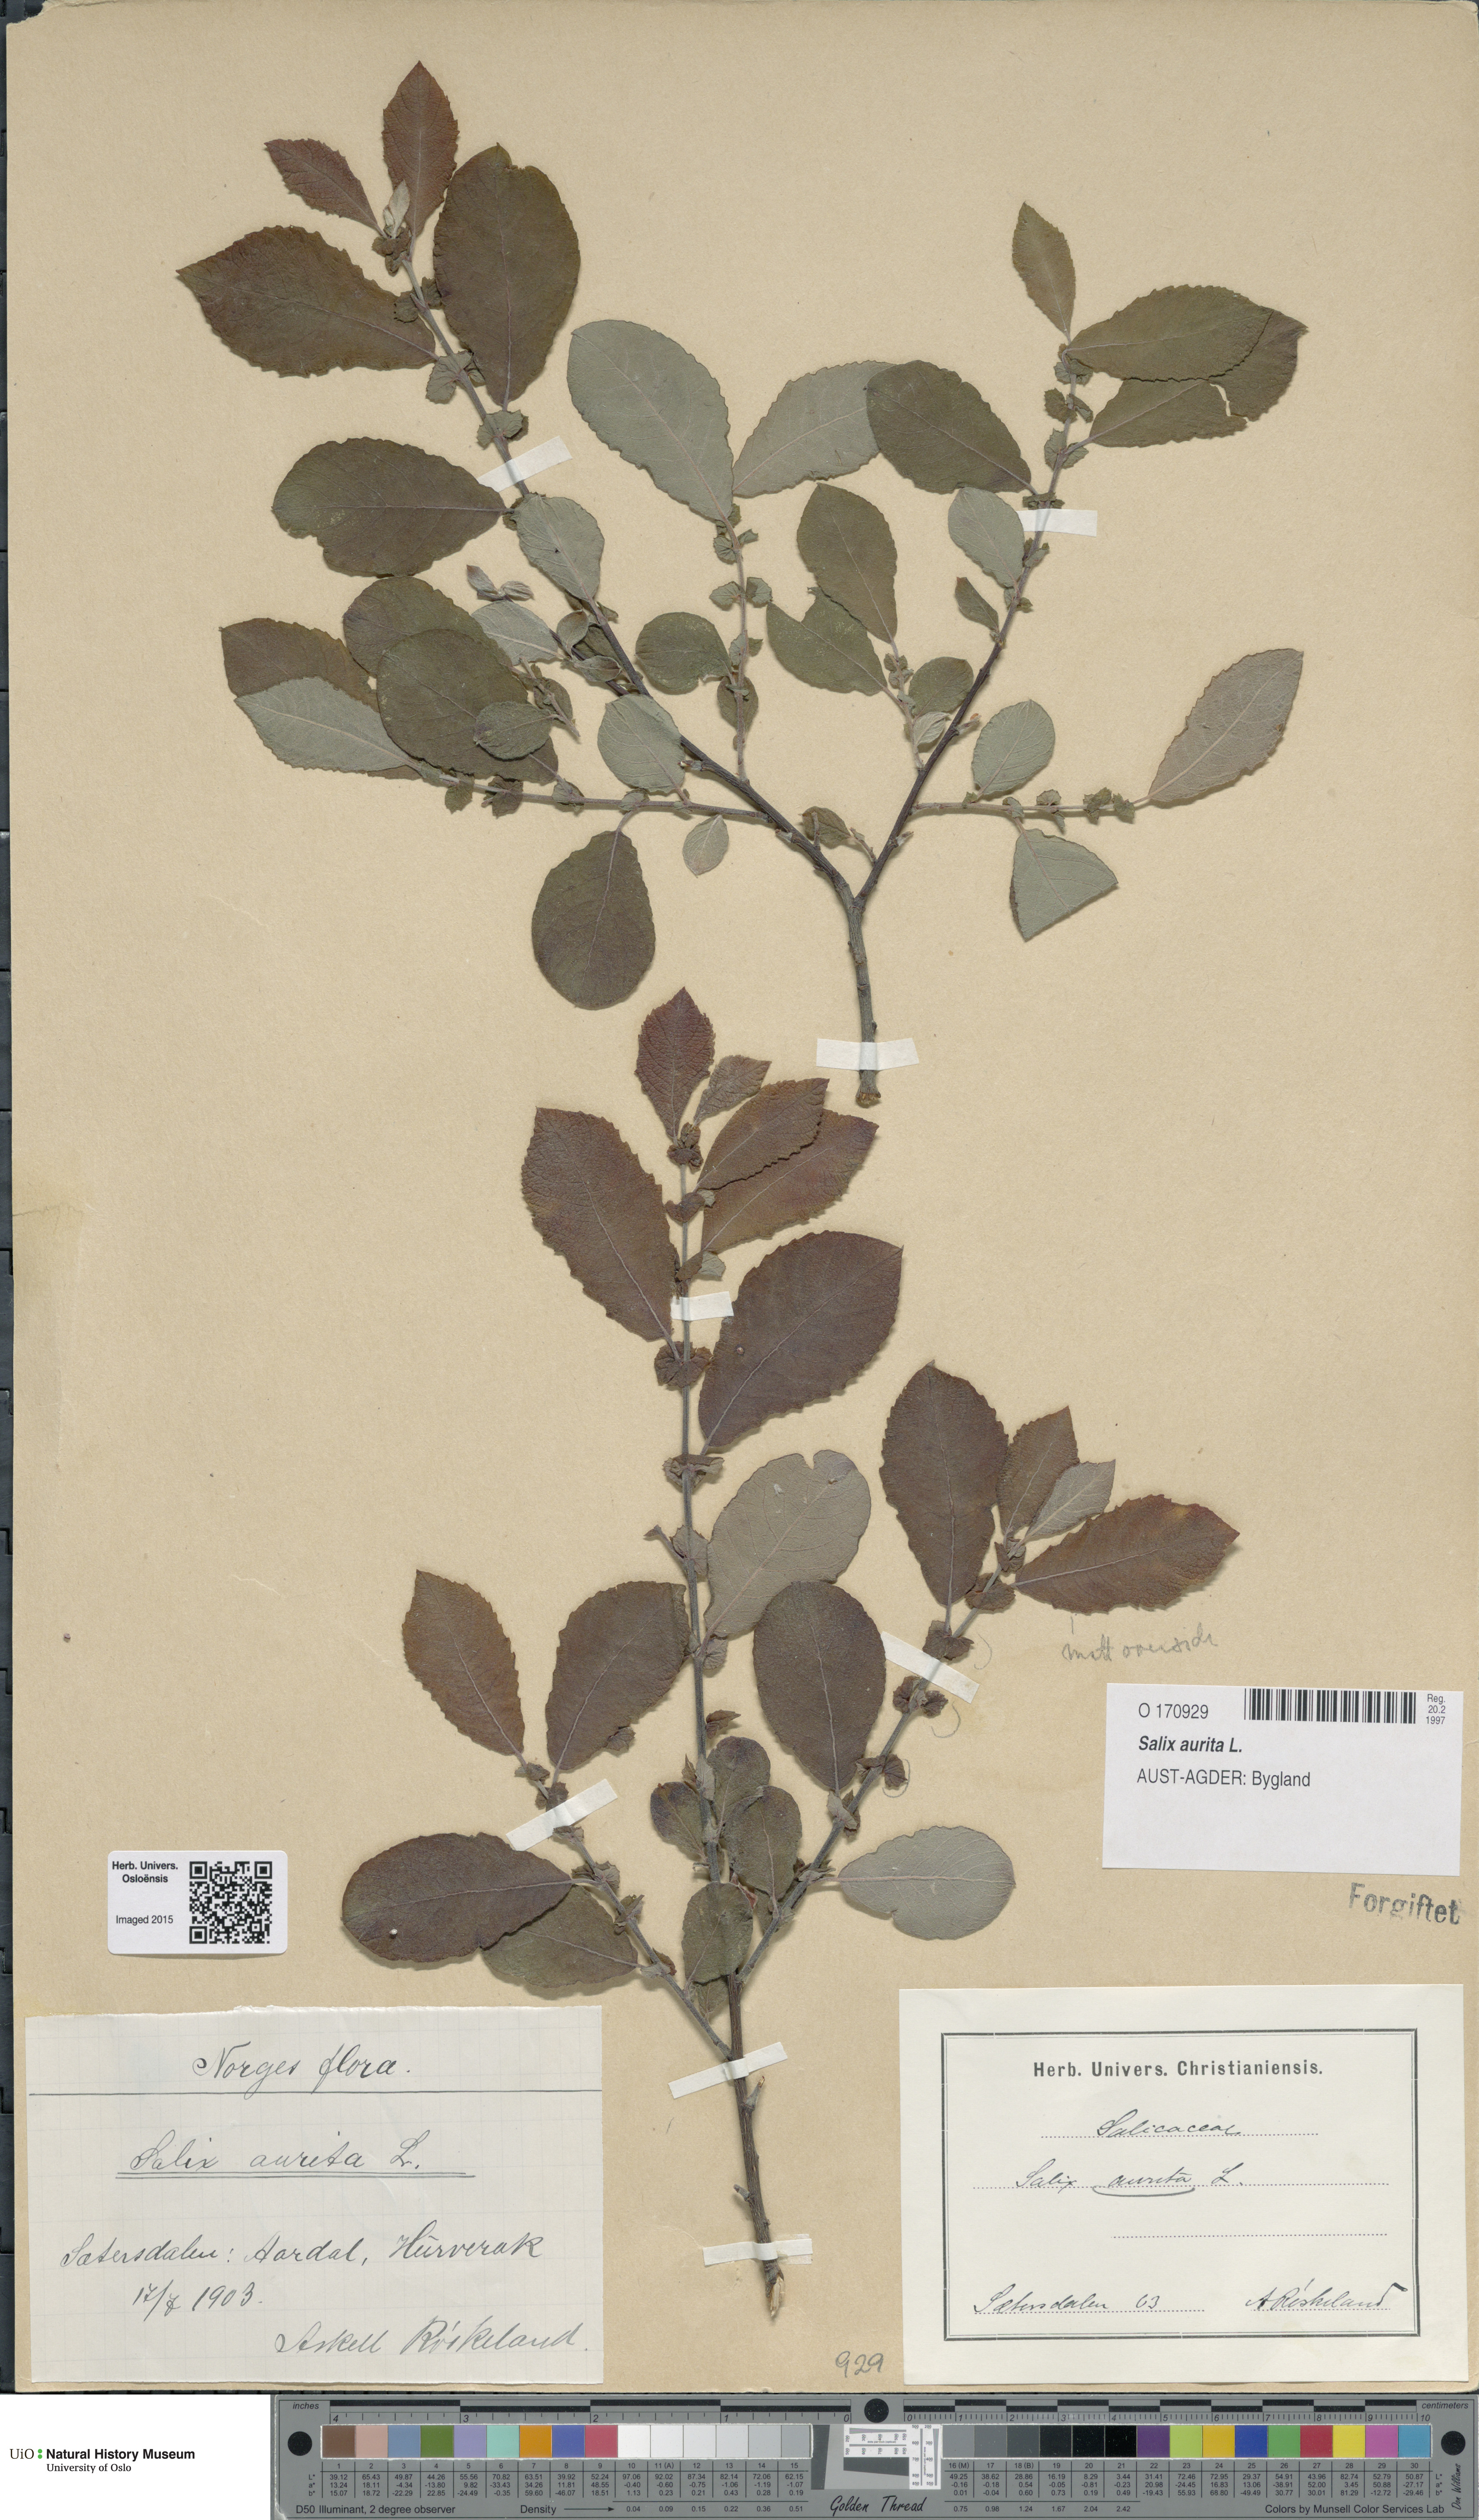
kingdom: Plantae
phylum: Tracheophyta
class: Magnoliopsida
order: Malpighiales
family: Salicaceae
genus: Salix
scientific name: Salix aurita
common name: Eared willow
